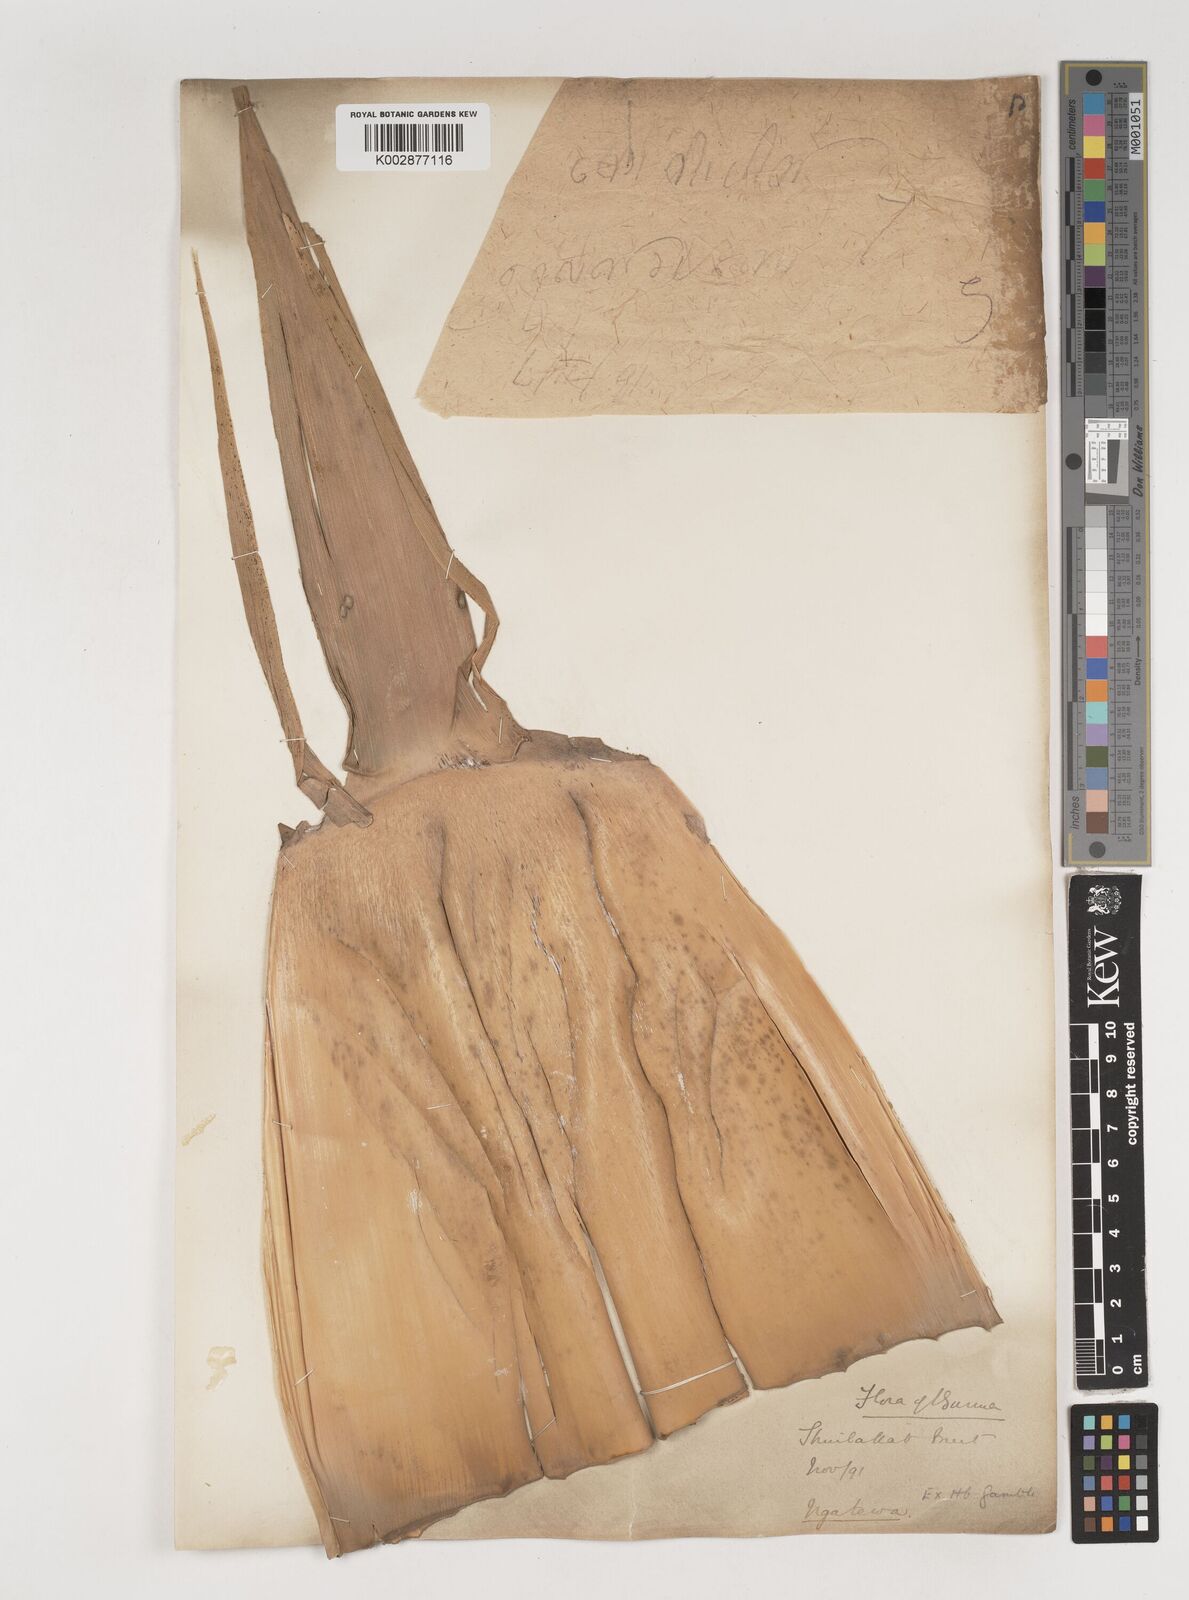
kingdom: Plantae
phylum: Tracheophyta
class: Liliopsida
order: Poales
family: Poaceae
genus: Bambusa
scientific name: Bambusa
